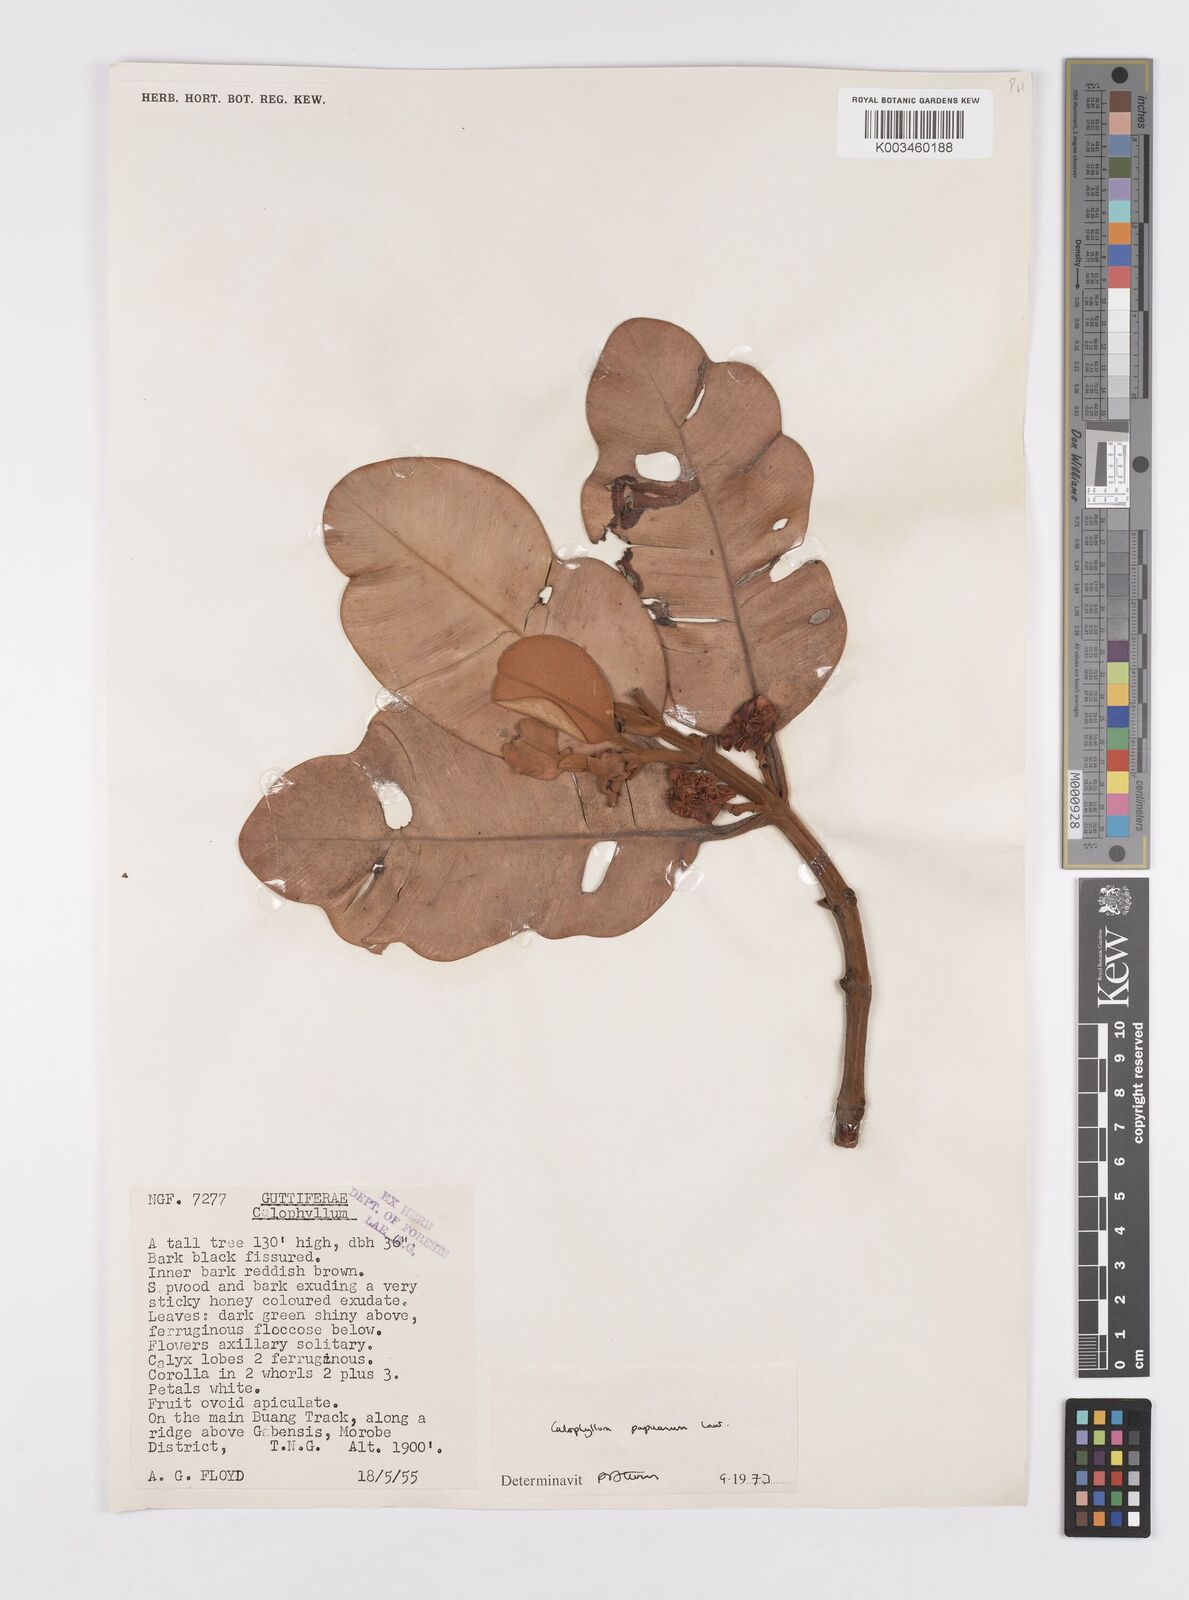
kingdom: Plantae
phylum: Tracheophyta
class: Magnoliopsida
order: Malpighiales
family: Calophyllaceae
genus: Calophyllum
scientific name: Calophyllum papuanum
